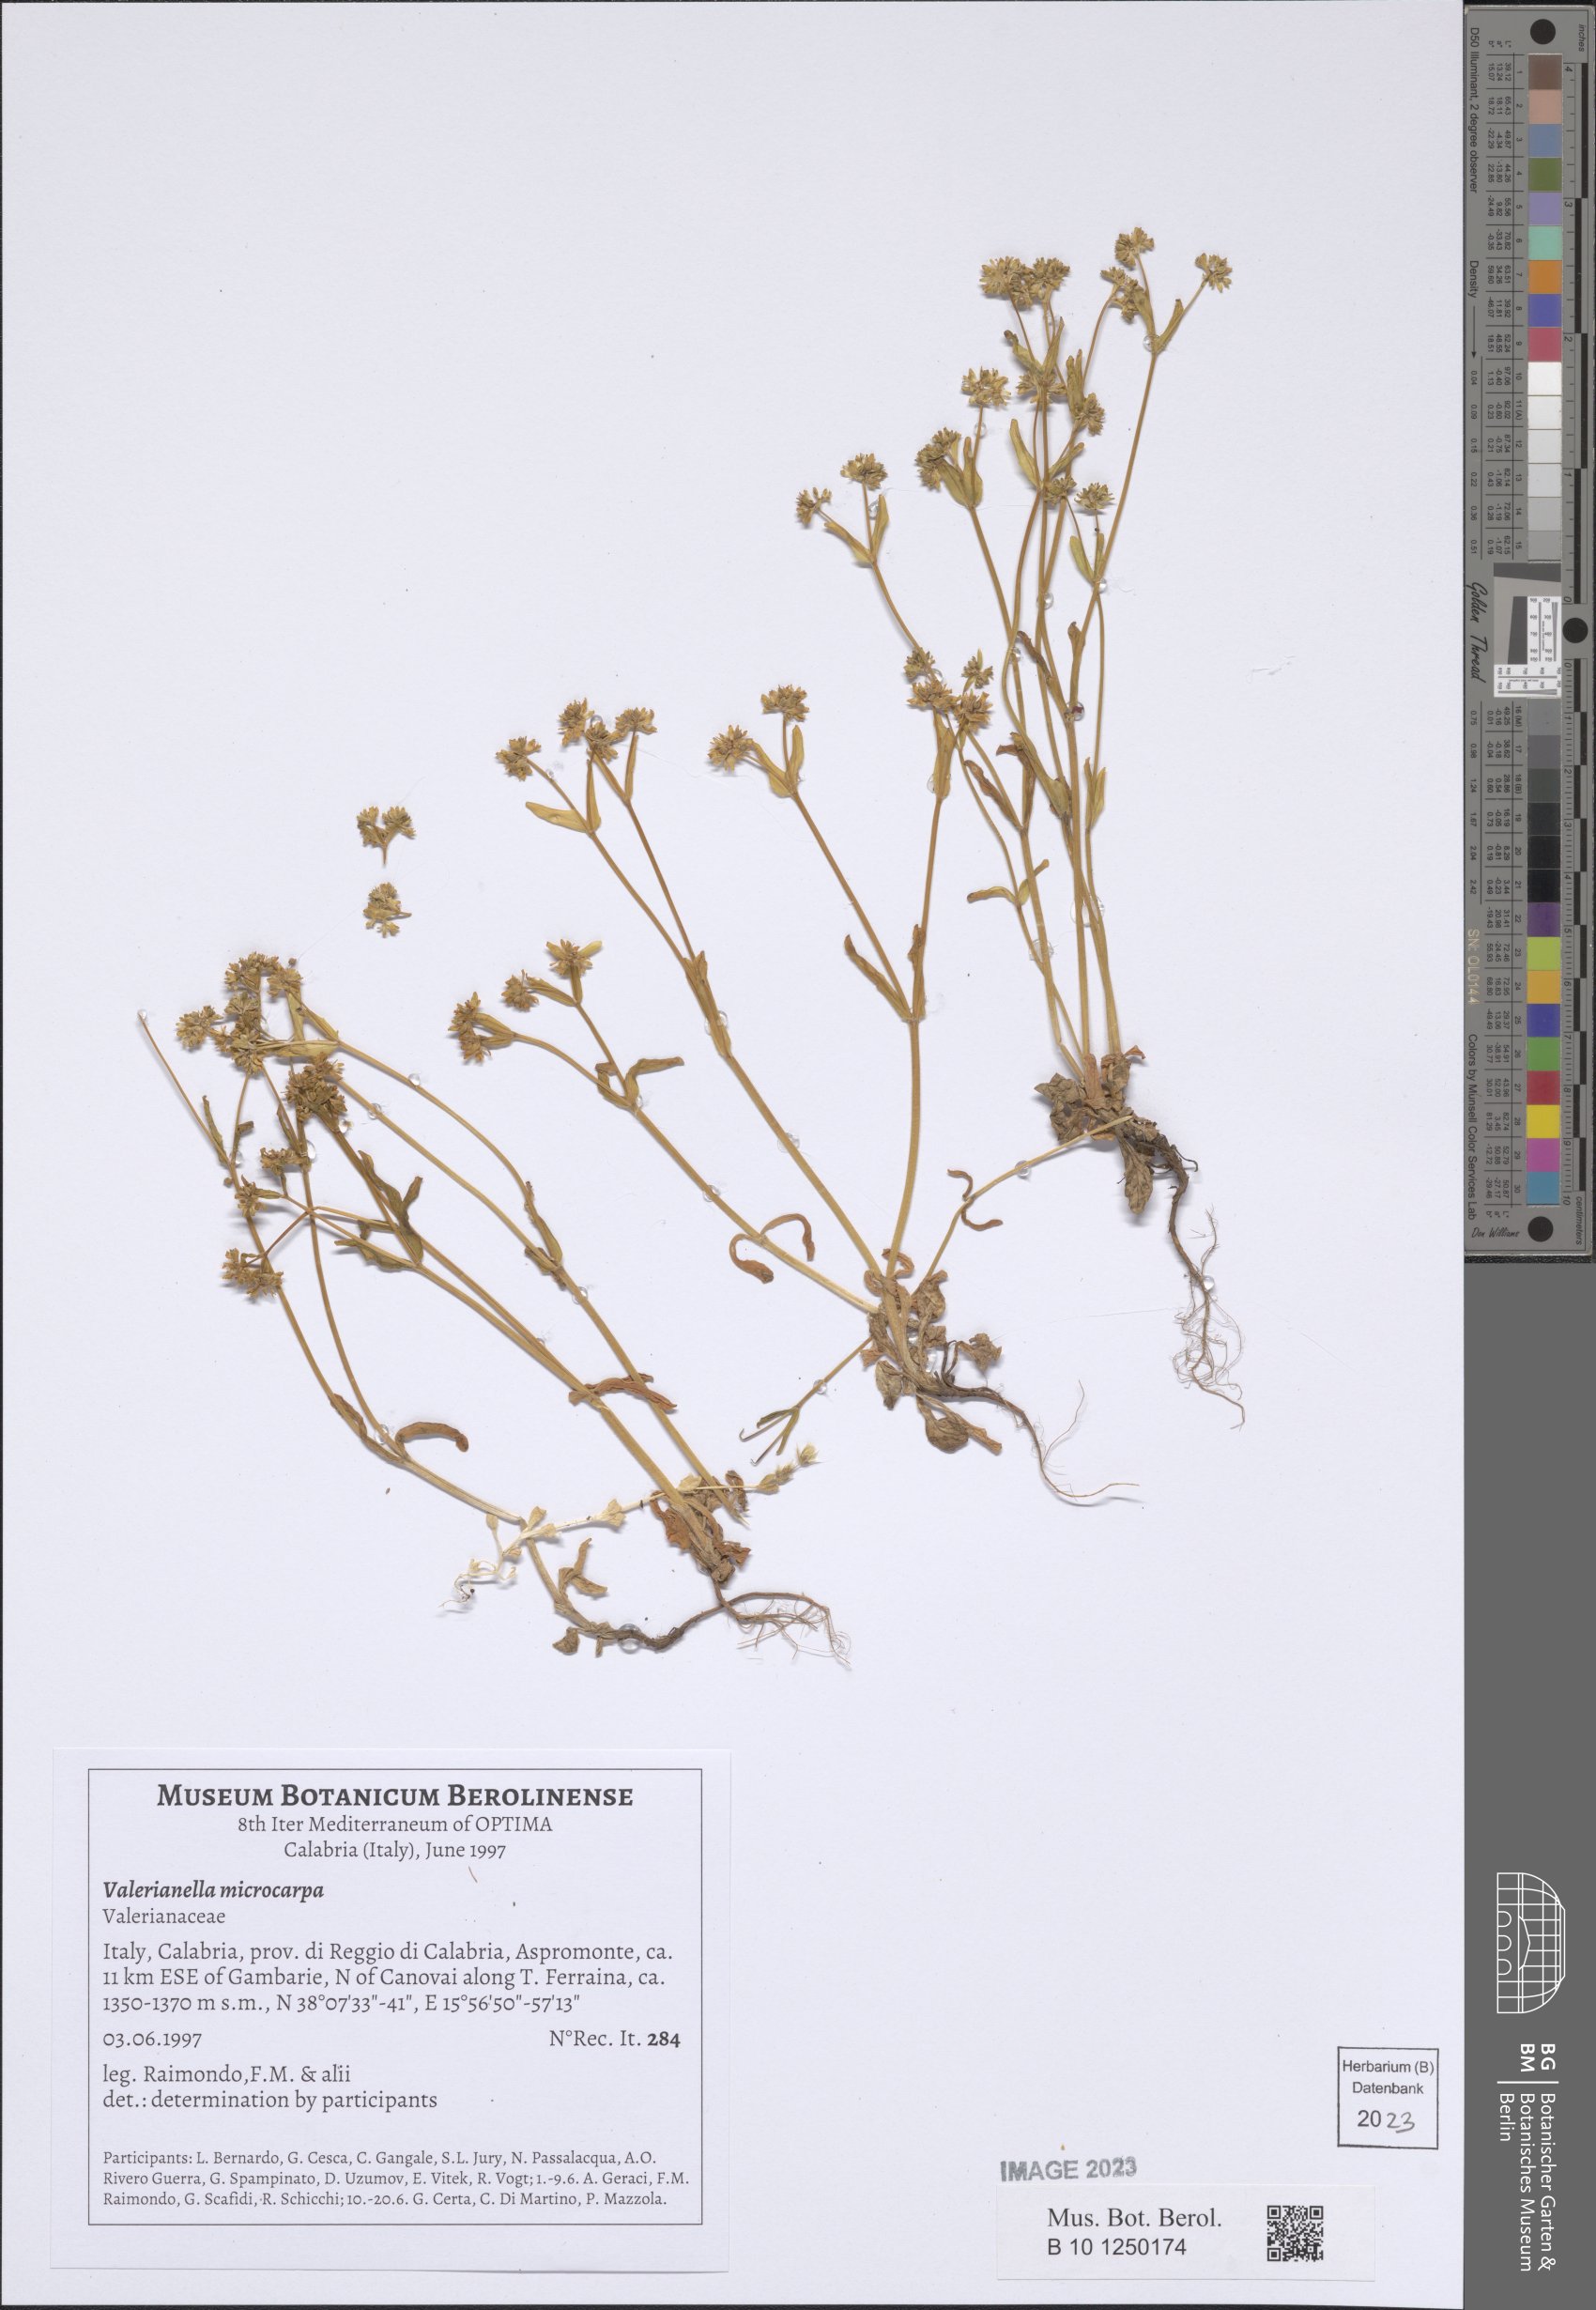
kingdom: Plantae
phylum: Tracheophyta
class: Magnoliopsida
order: Dipsacales
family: Caprifoliaceae
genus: Valerianella
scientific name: Valerianella microcarpa
